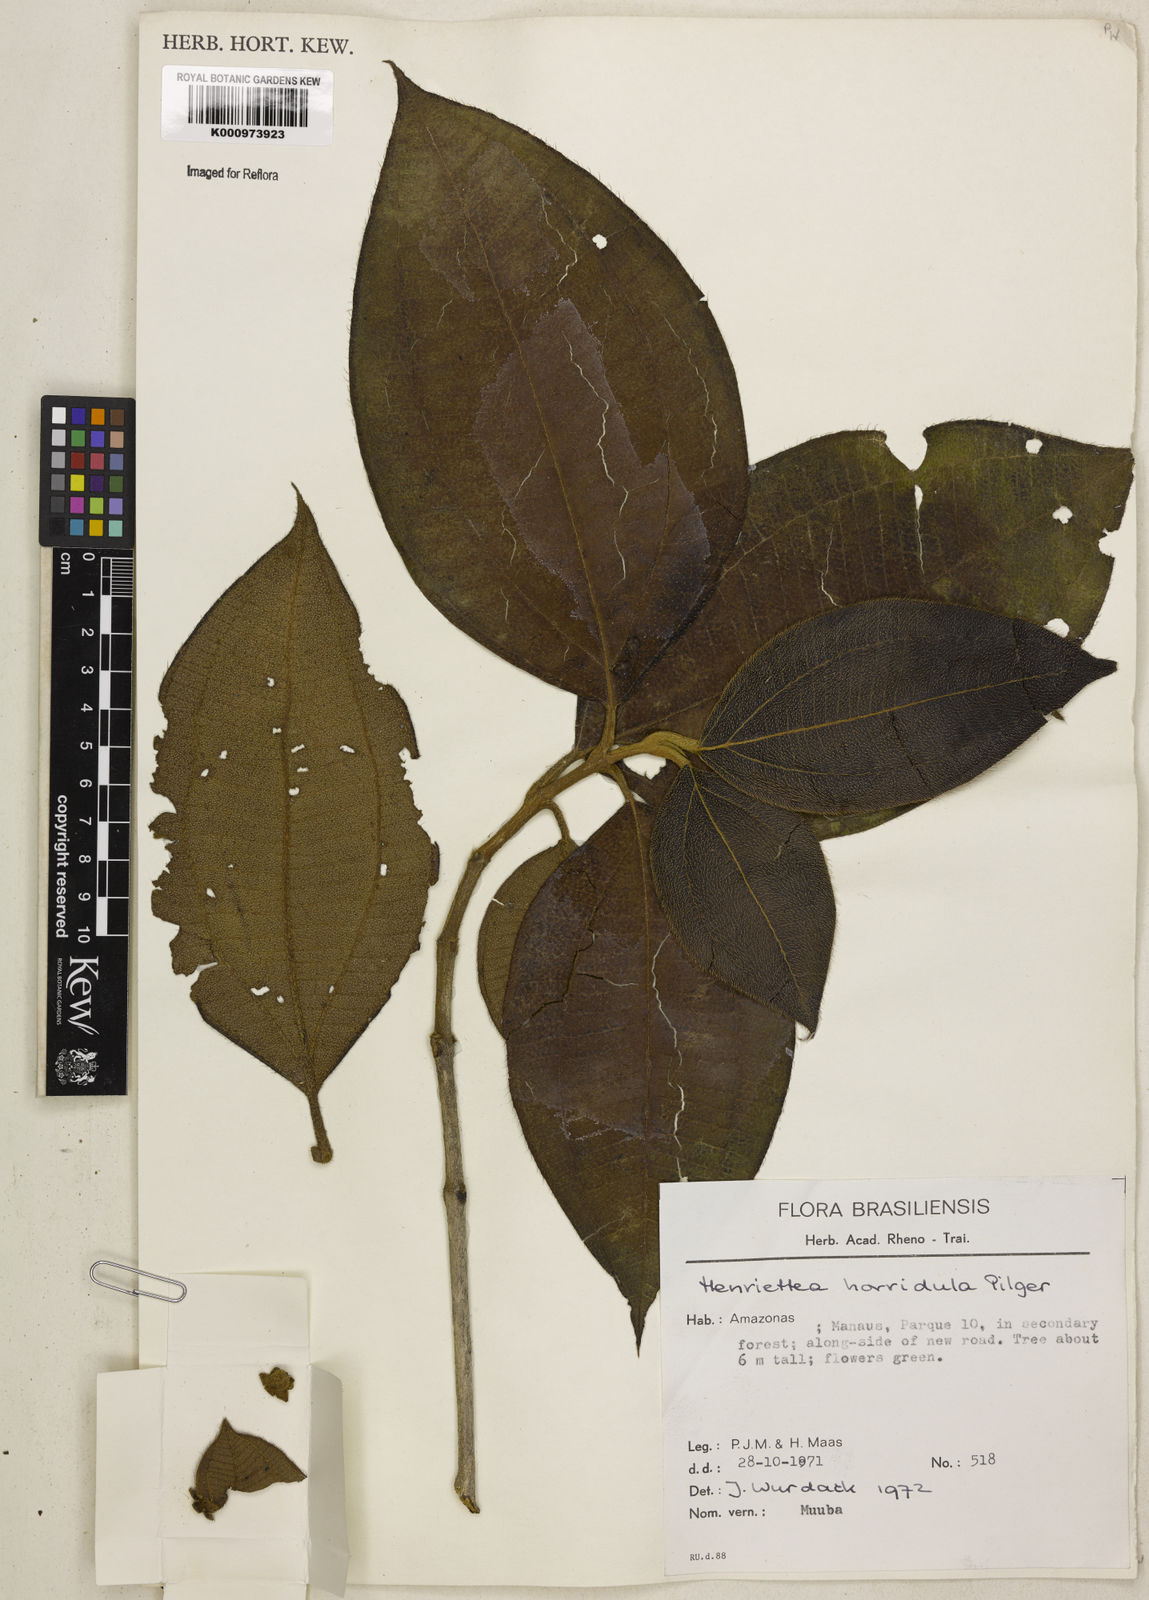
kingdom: Plantae
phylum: Tracheophyta
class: Magnoliopsida
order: Myrtales
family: Melastomataceae
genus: Henriettea
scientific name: Henriettea horridula
